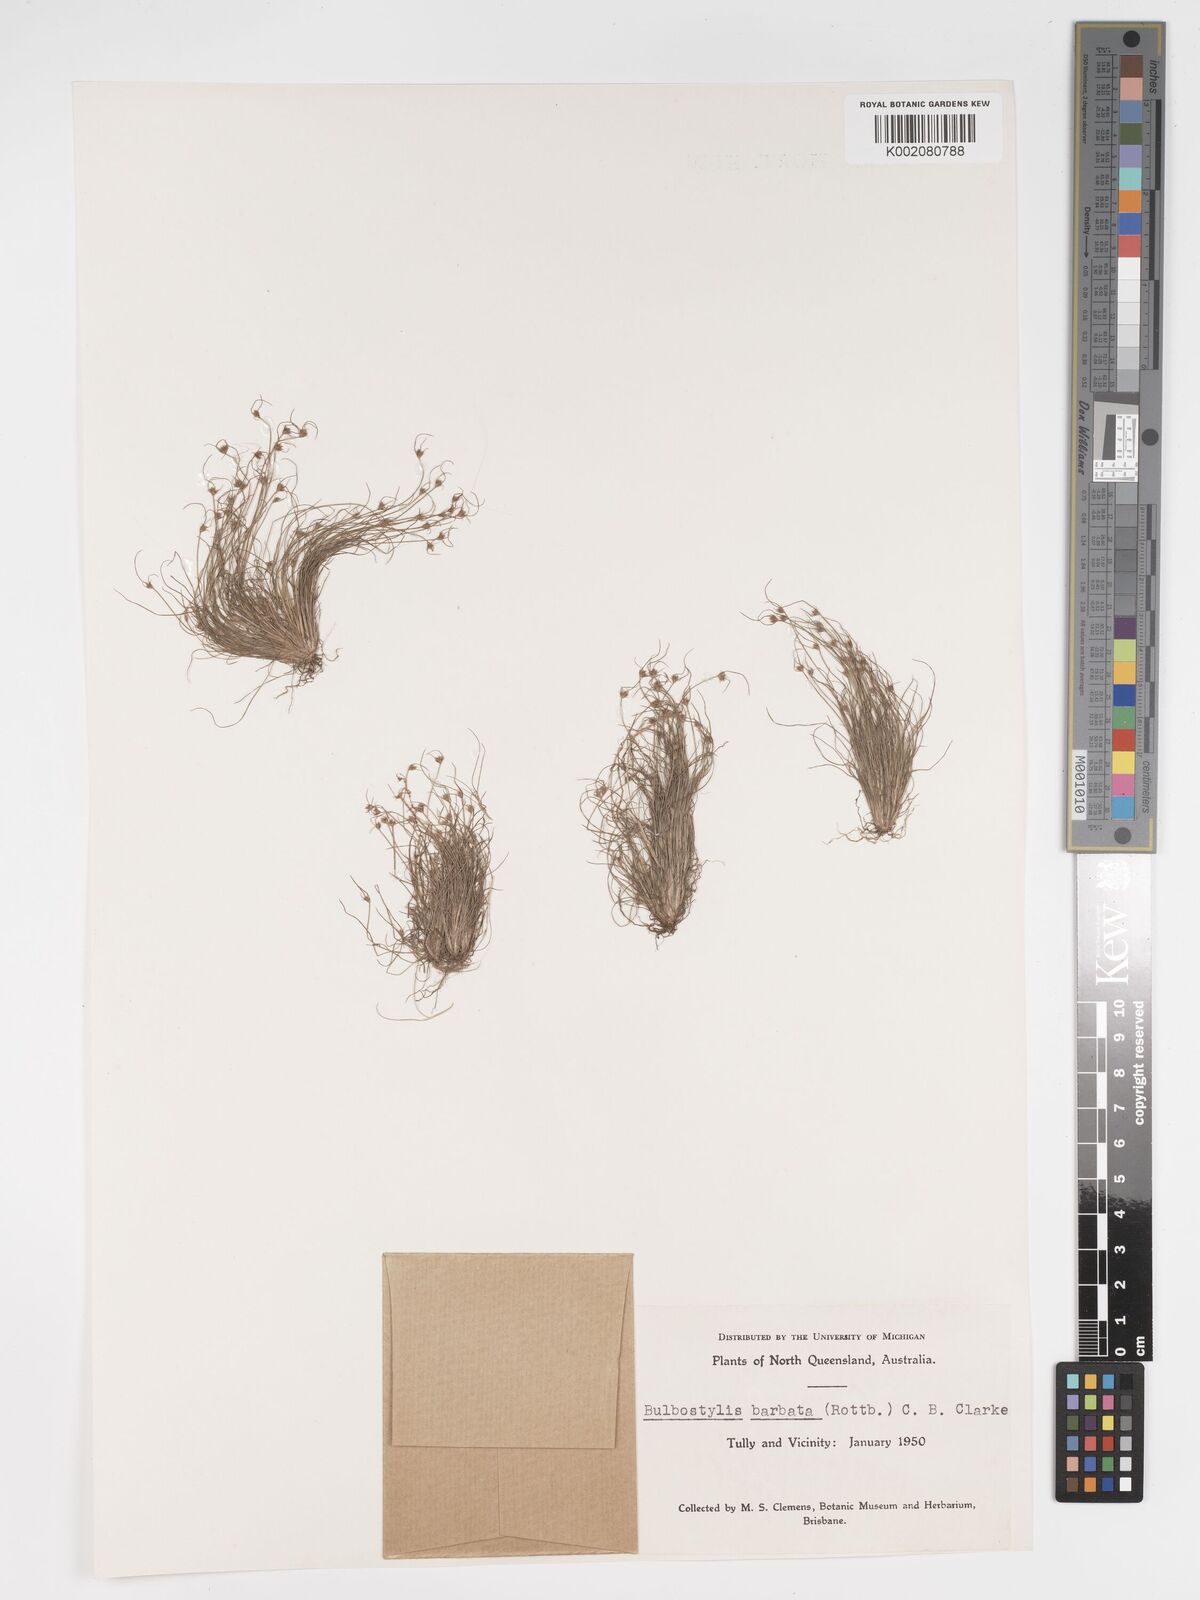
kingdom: Plantae
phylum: Tracheophyta
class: Liliopsida
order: Poales
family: Cyperaceae
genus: Bulbostylis
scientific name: Bulbostylis barbata
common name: Watergrass
